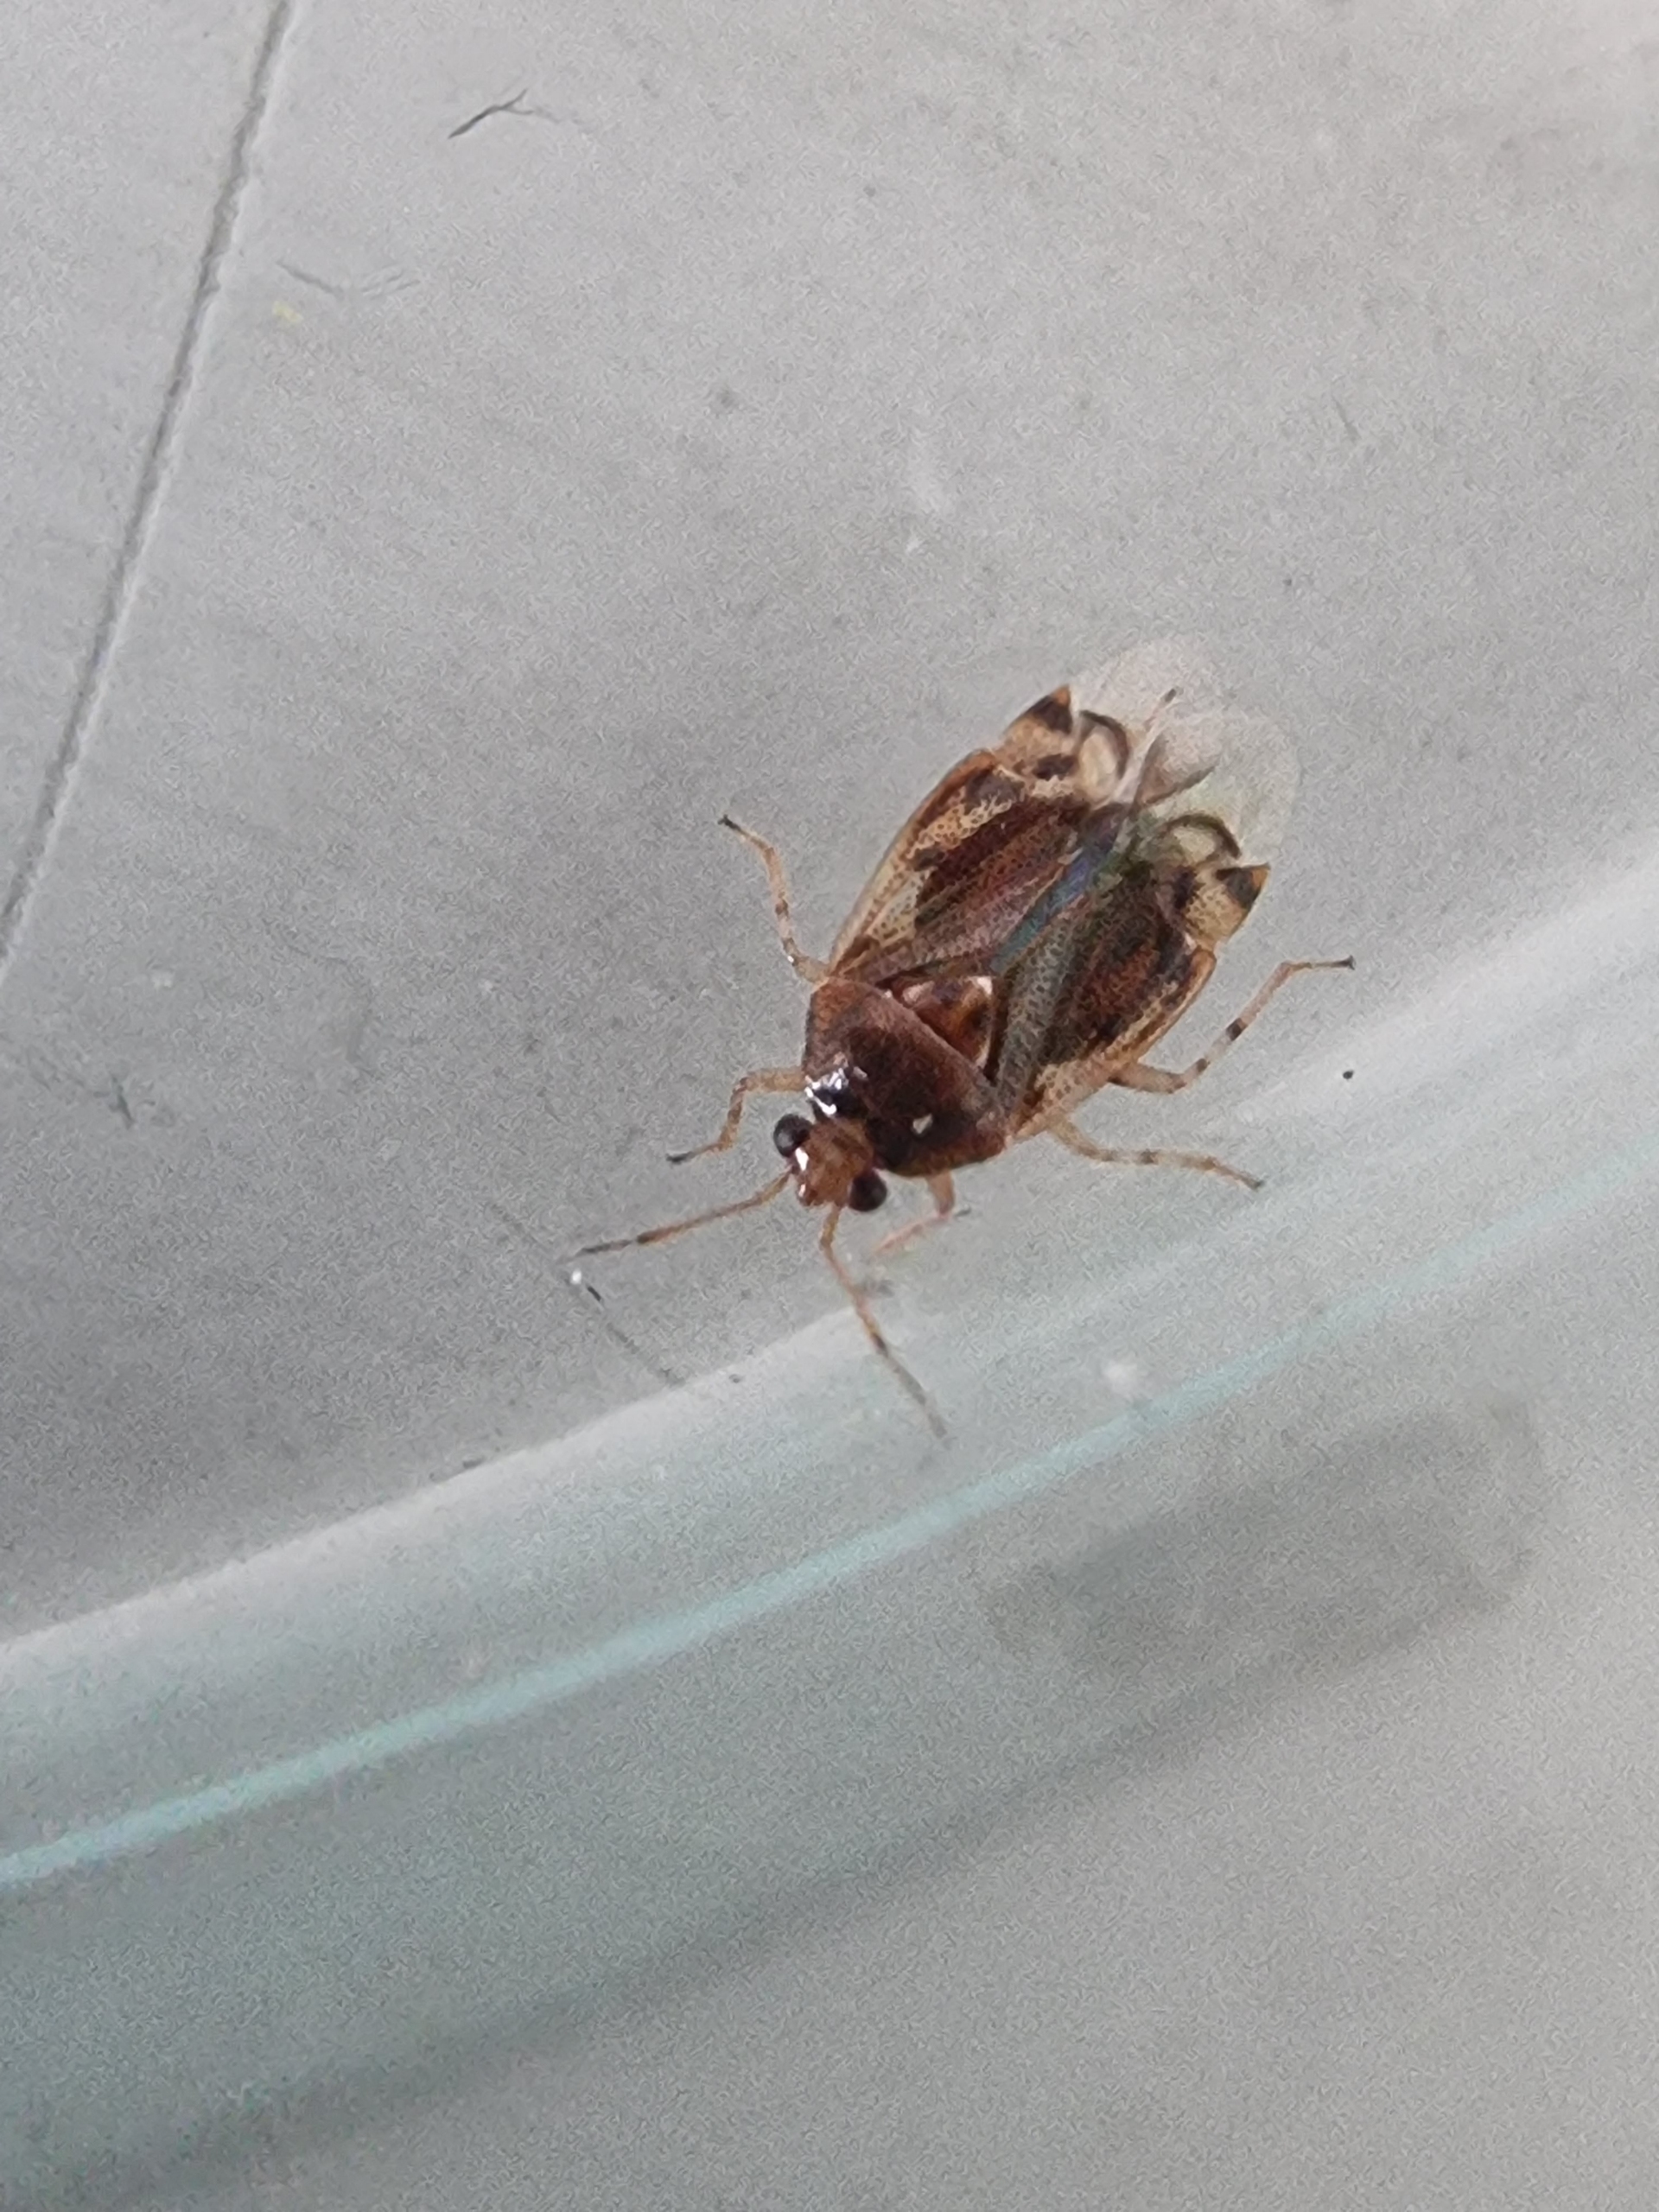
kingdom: Animalia
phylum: Arthropoda
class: Insecta
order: Hemiptera
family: Miridae
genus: Deraeocoris
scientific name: Deraeocoris lutescens
